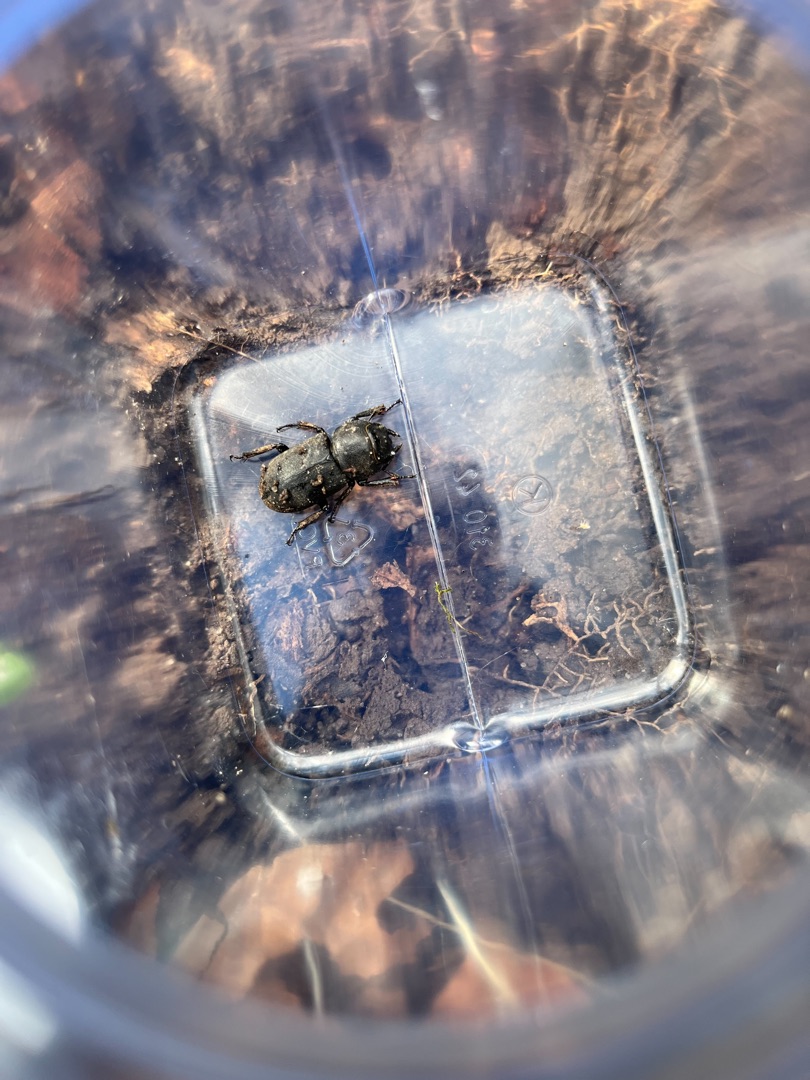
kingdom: Animalia
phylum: Arthropoda
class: Insecta
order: Coleoptera
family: Lucanidae
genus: Dorcus
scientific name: Dorcus parallelipipedus
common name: Bøghjort
